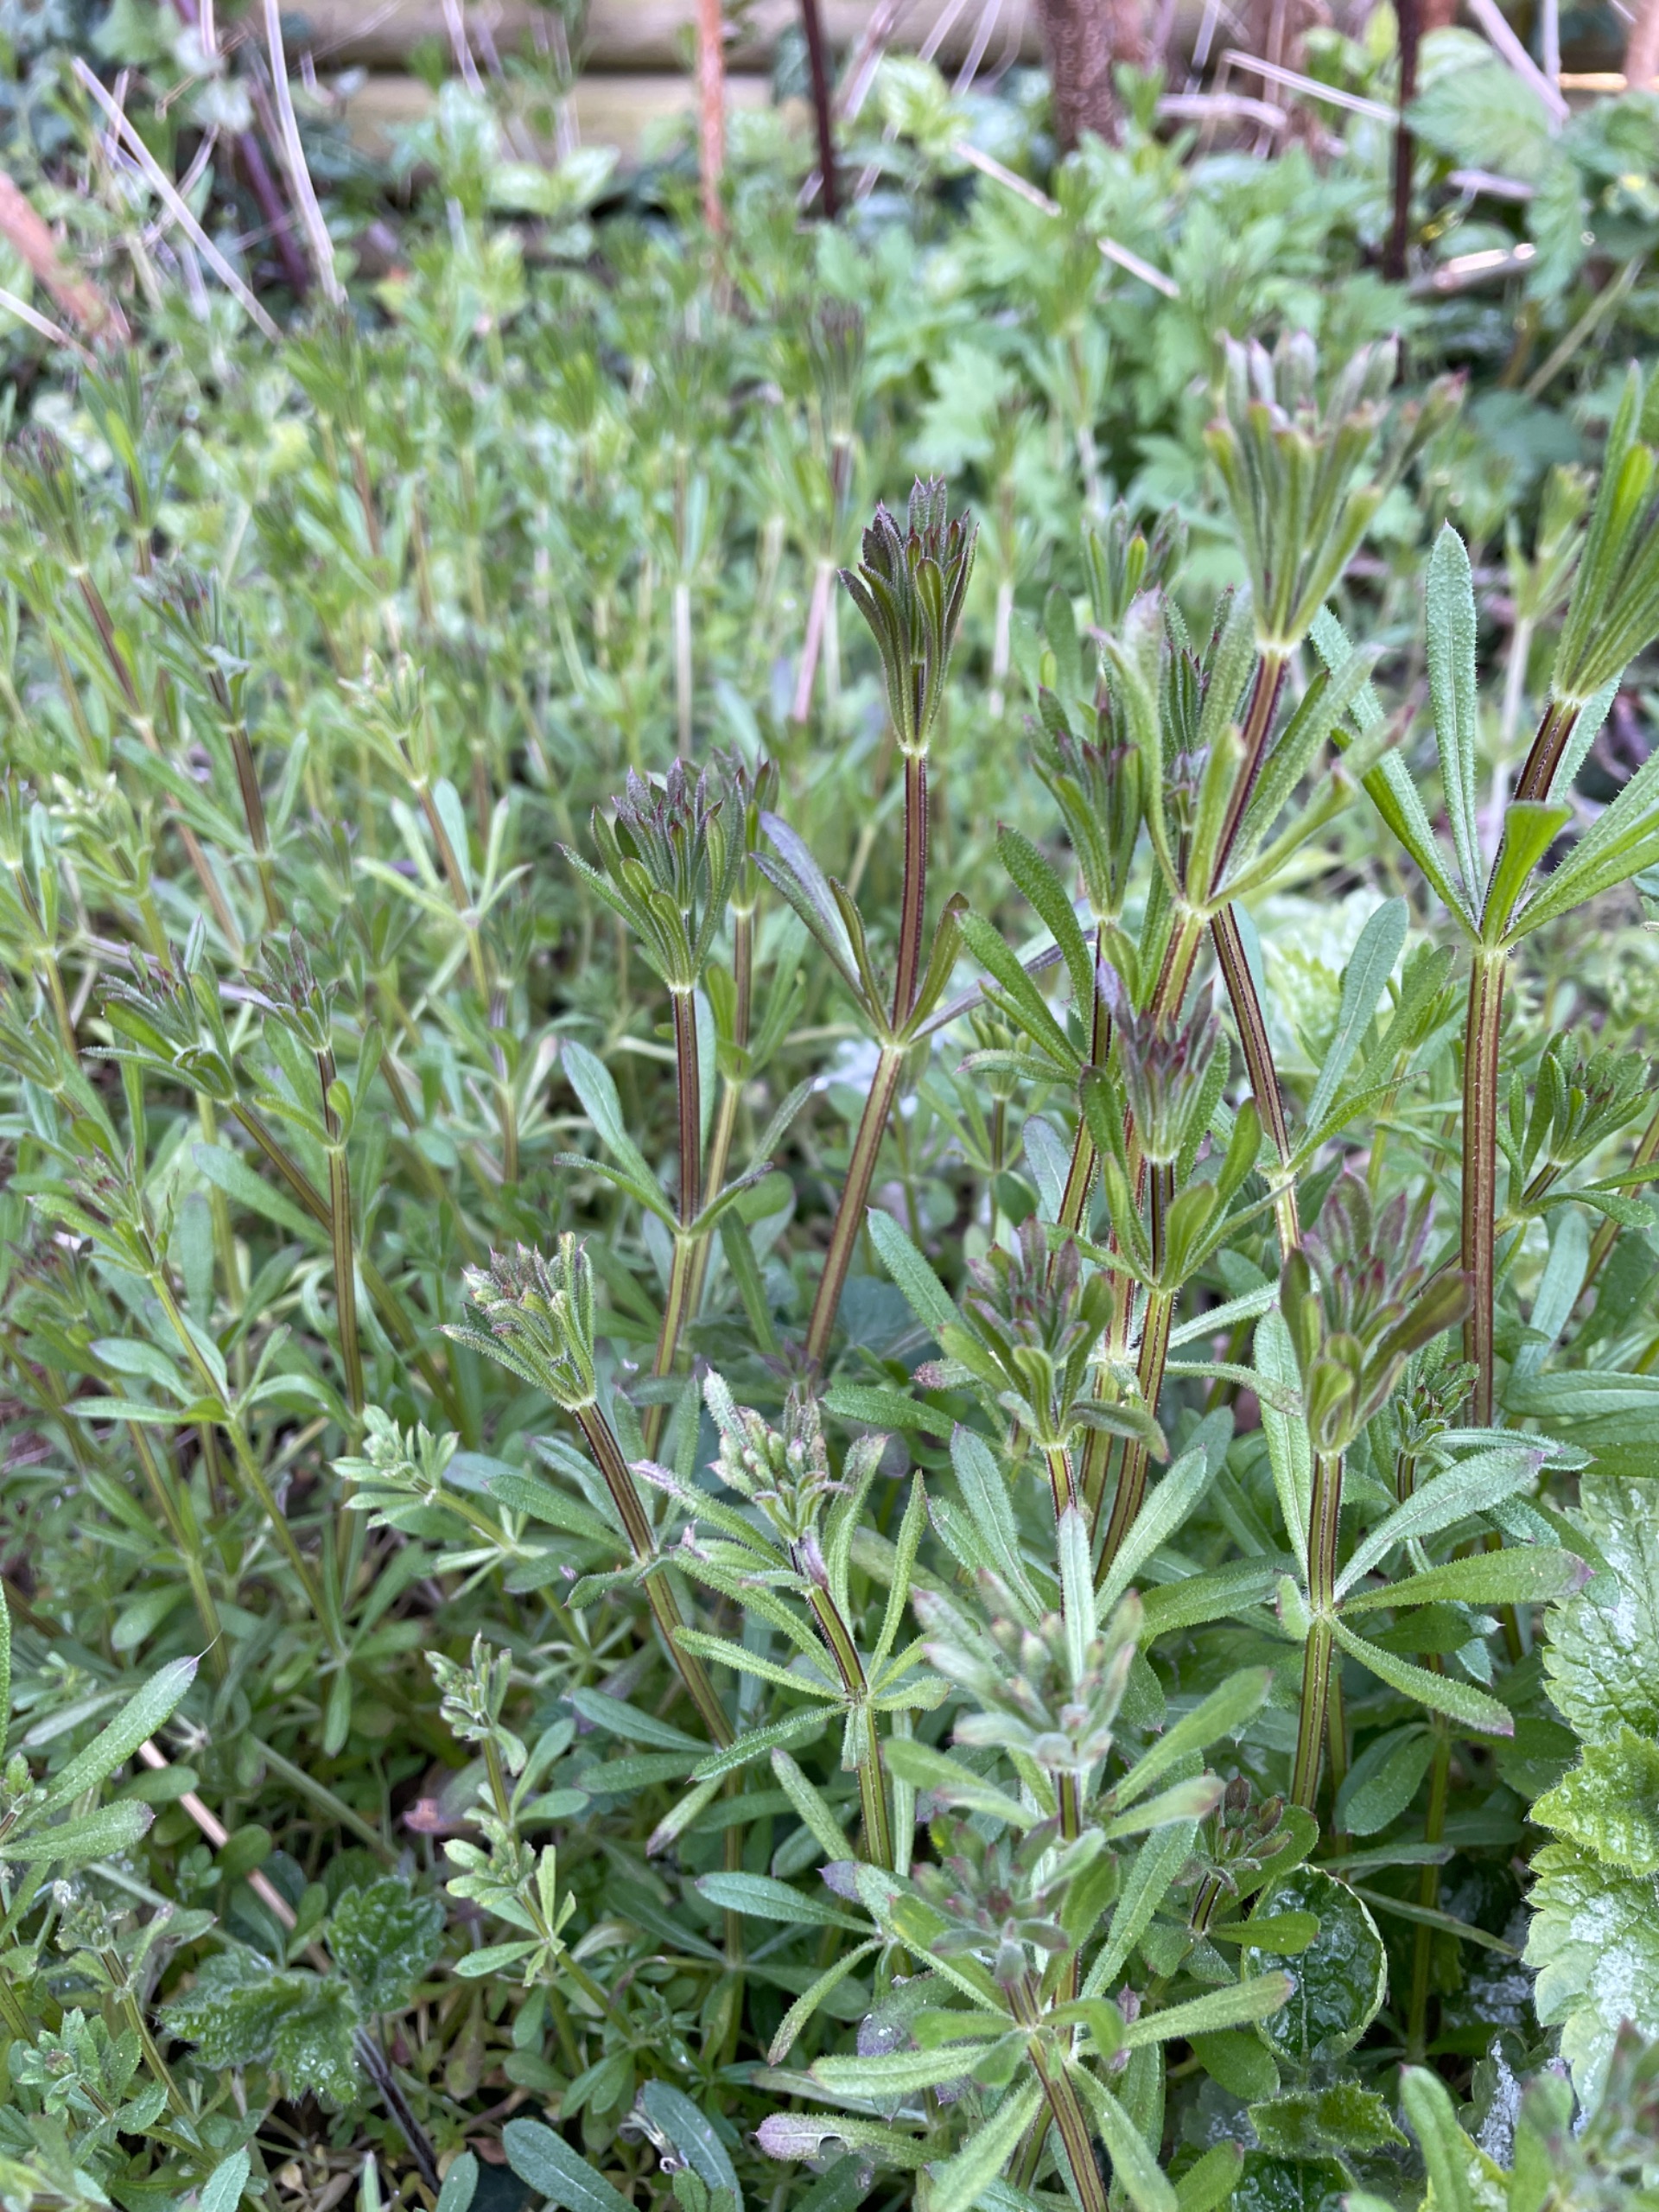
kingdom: Plantae
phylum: Tracheophyta
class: Magnoliopsida
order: Gentianales
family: Rubiaceae
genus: Galium
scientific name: Galium aparine
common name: Burre-snerre
